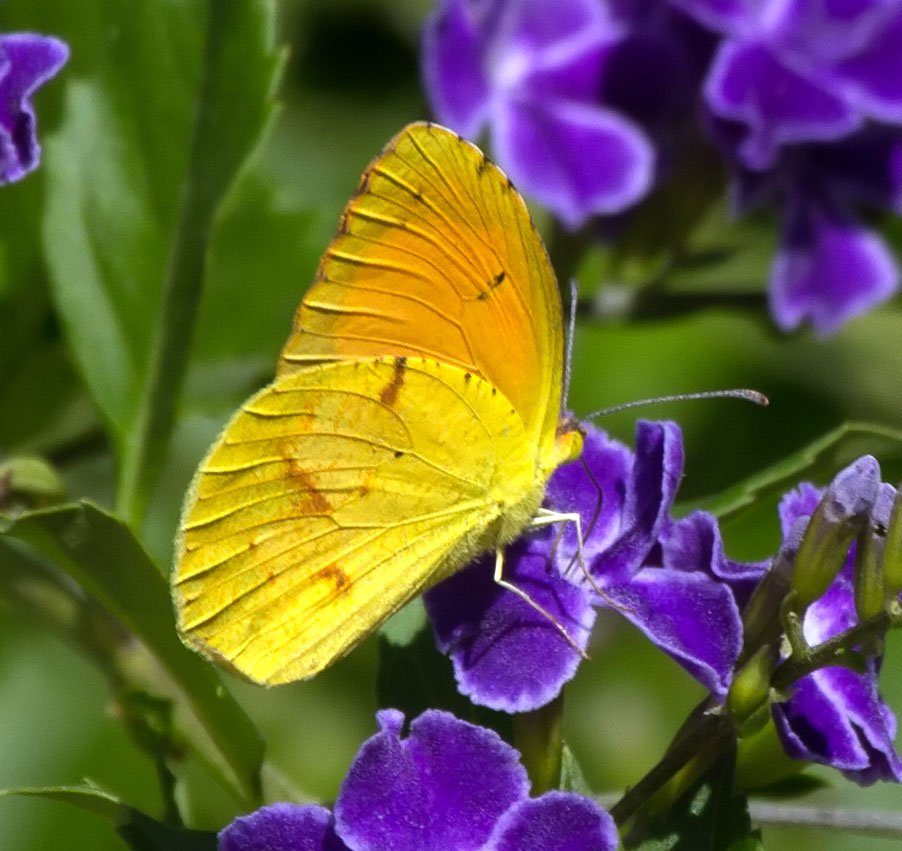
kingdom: Animalia
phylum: Arthropoda
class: Insecta
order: Lepidoptera
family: Pieridae
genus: Abaeis
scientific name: Abaeis nicippe
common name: Sleepy Orange
